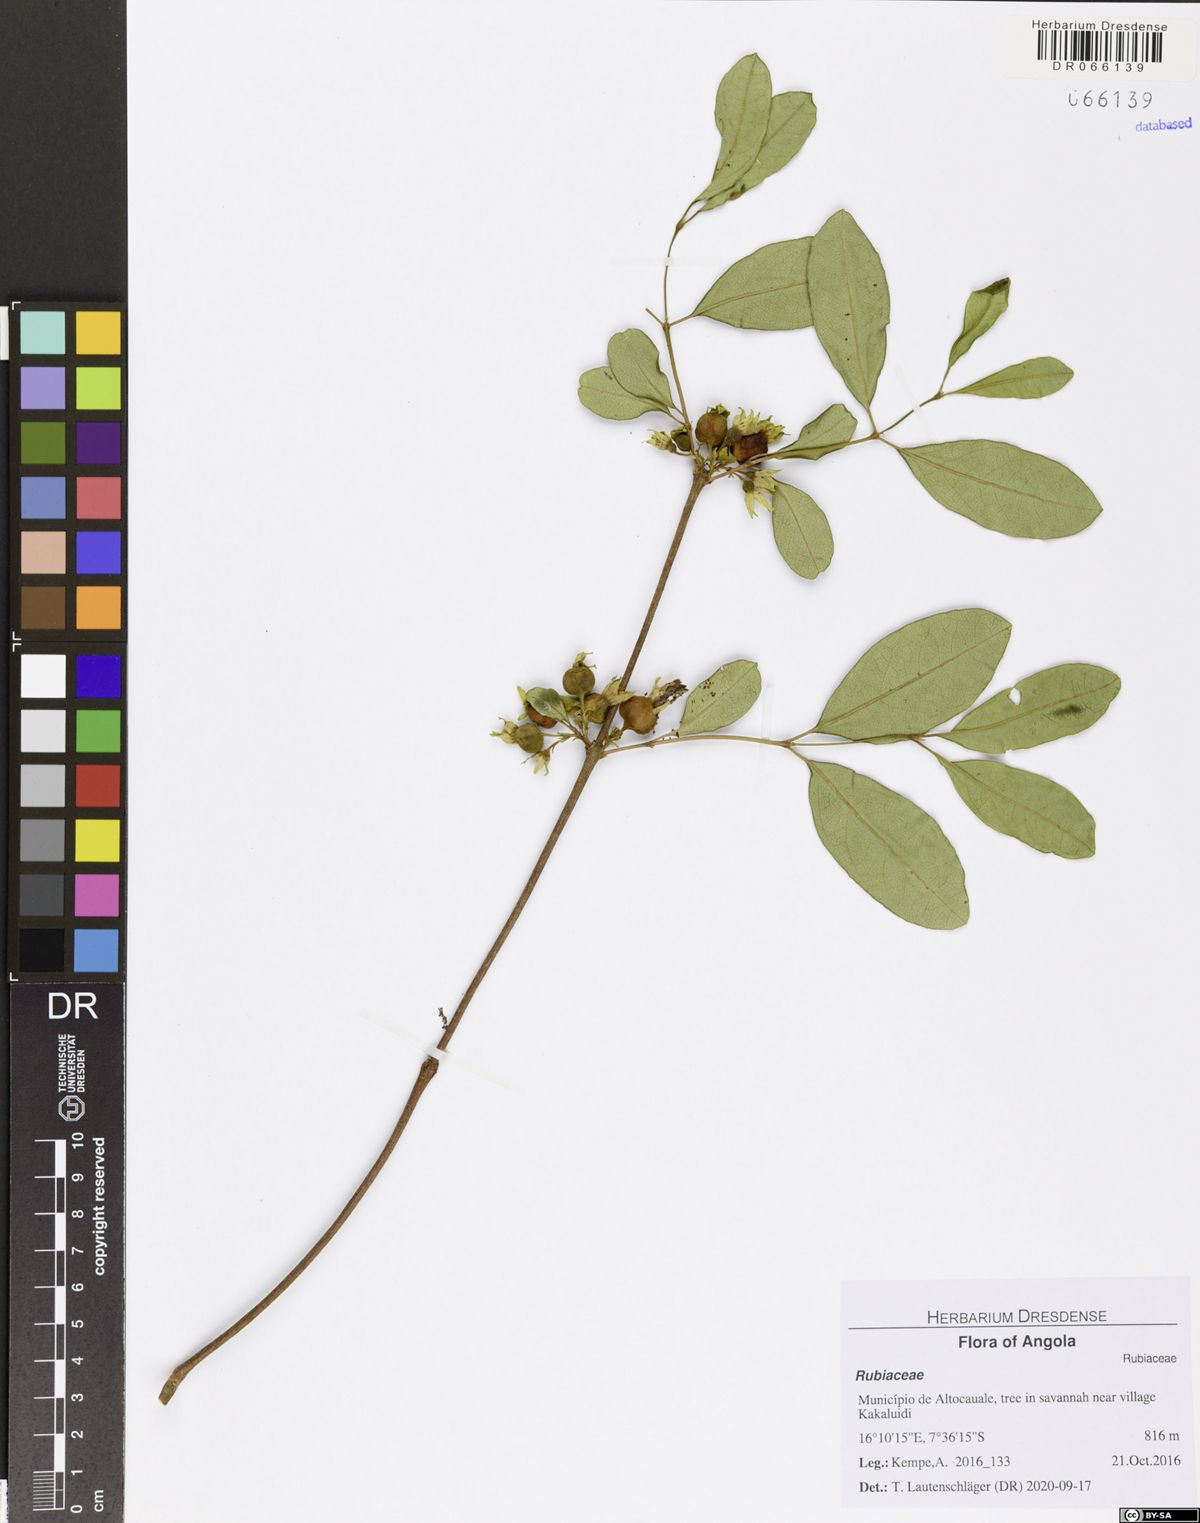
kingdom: Plantae
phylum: Tracheophyta
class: Magnoliopsida
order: Gentianales
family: Rubiaceae
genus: Vangueria
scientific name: Vangueria ferruginea
